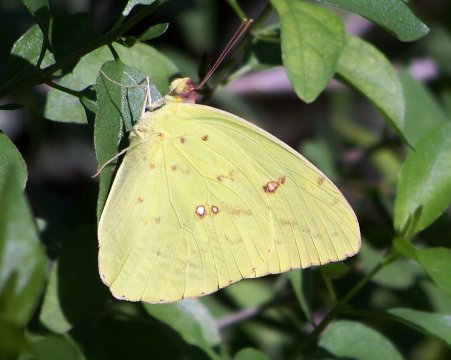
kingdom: Animalia
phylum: Arthropoda
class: Insecta
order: Lepidoptera
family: Pieridae
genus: Phoebis
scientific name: Phoebis sennae
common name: Cloudless Sulphur
